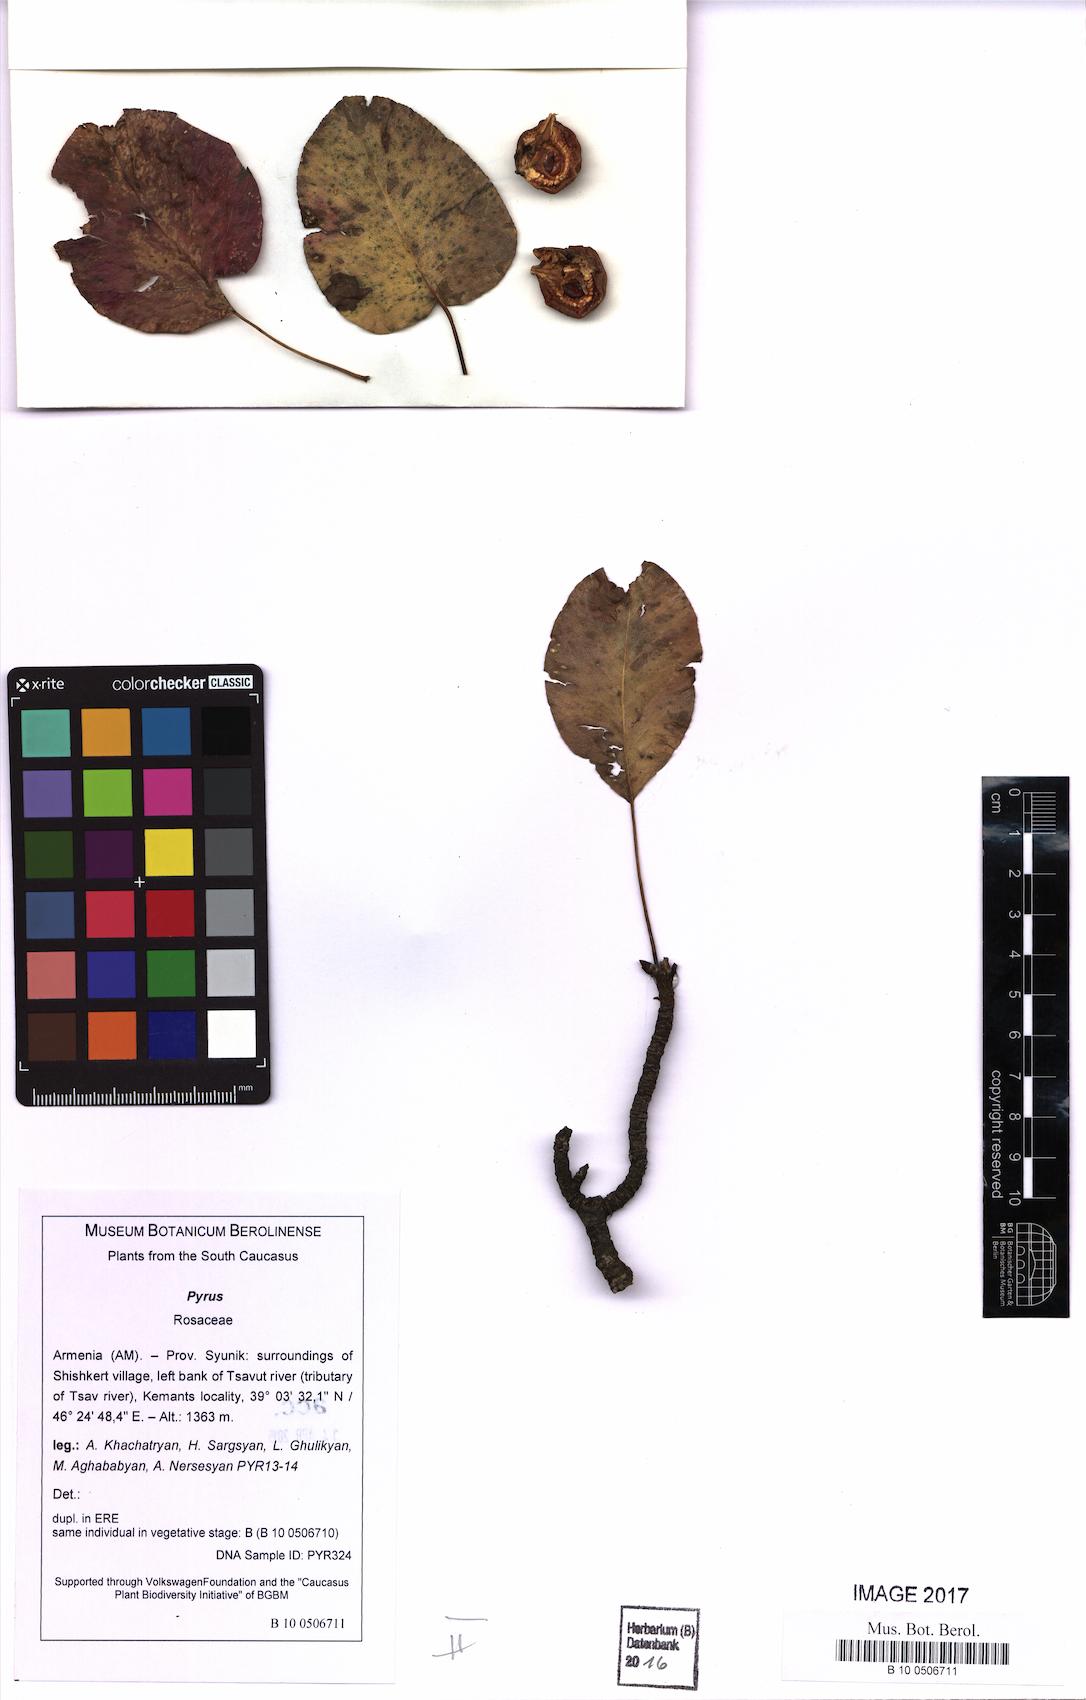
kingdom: Plantae
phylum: Tracheophyta
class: Magnoliopsida
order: Rosales
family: Rosaceae
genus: Pyrus
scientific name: Pyrus
